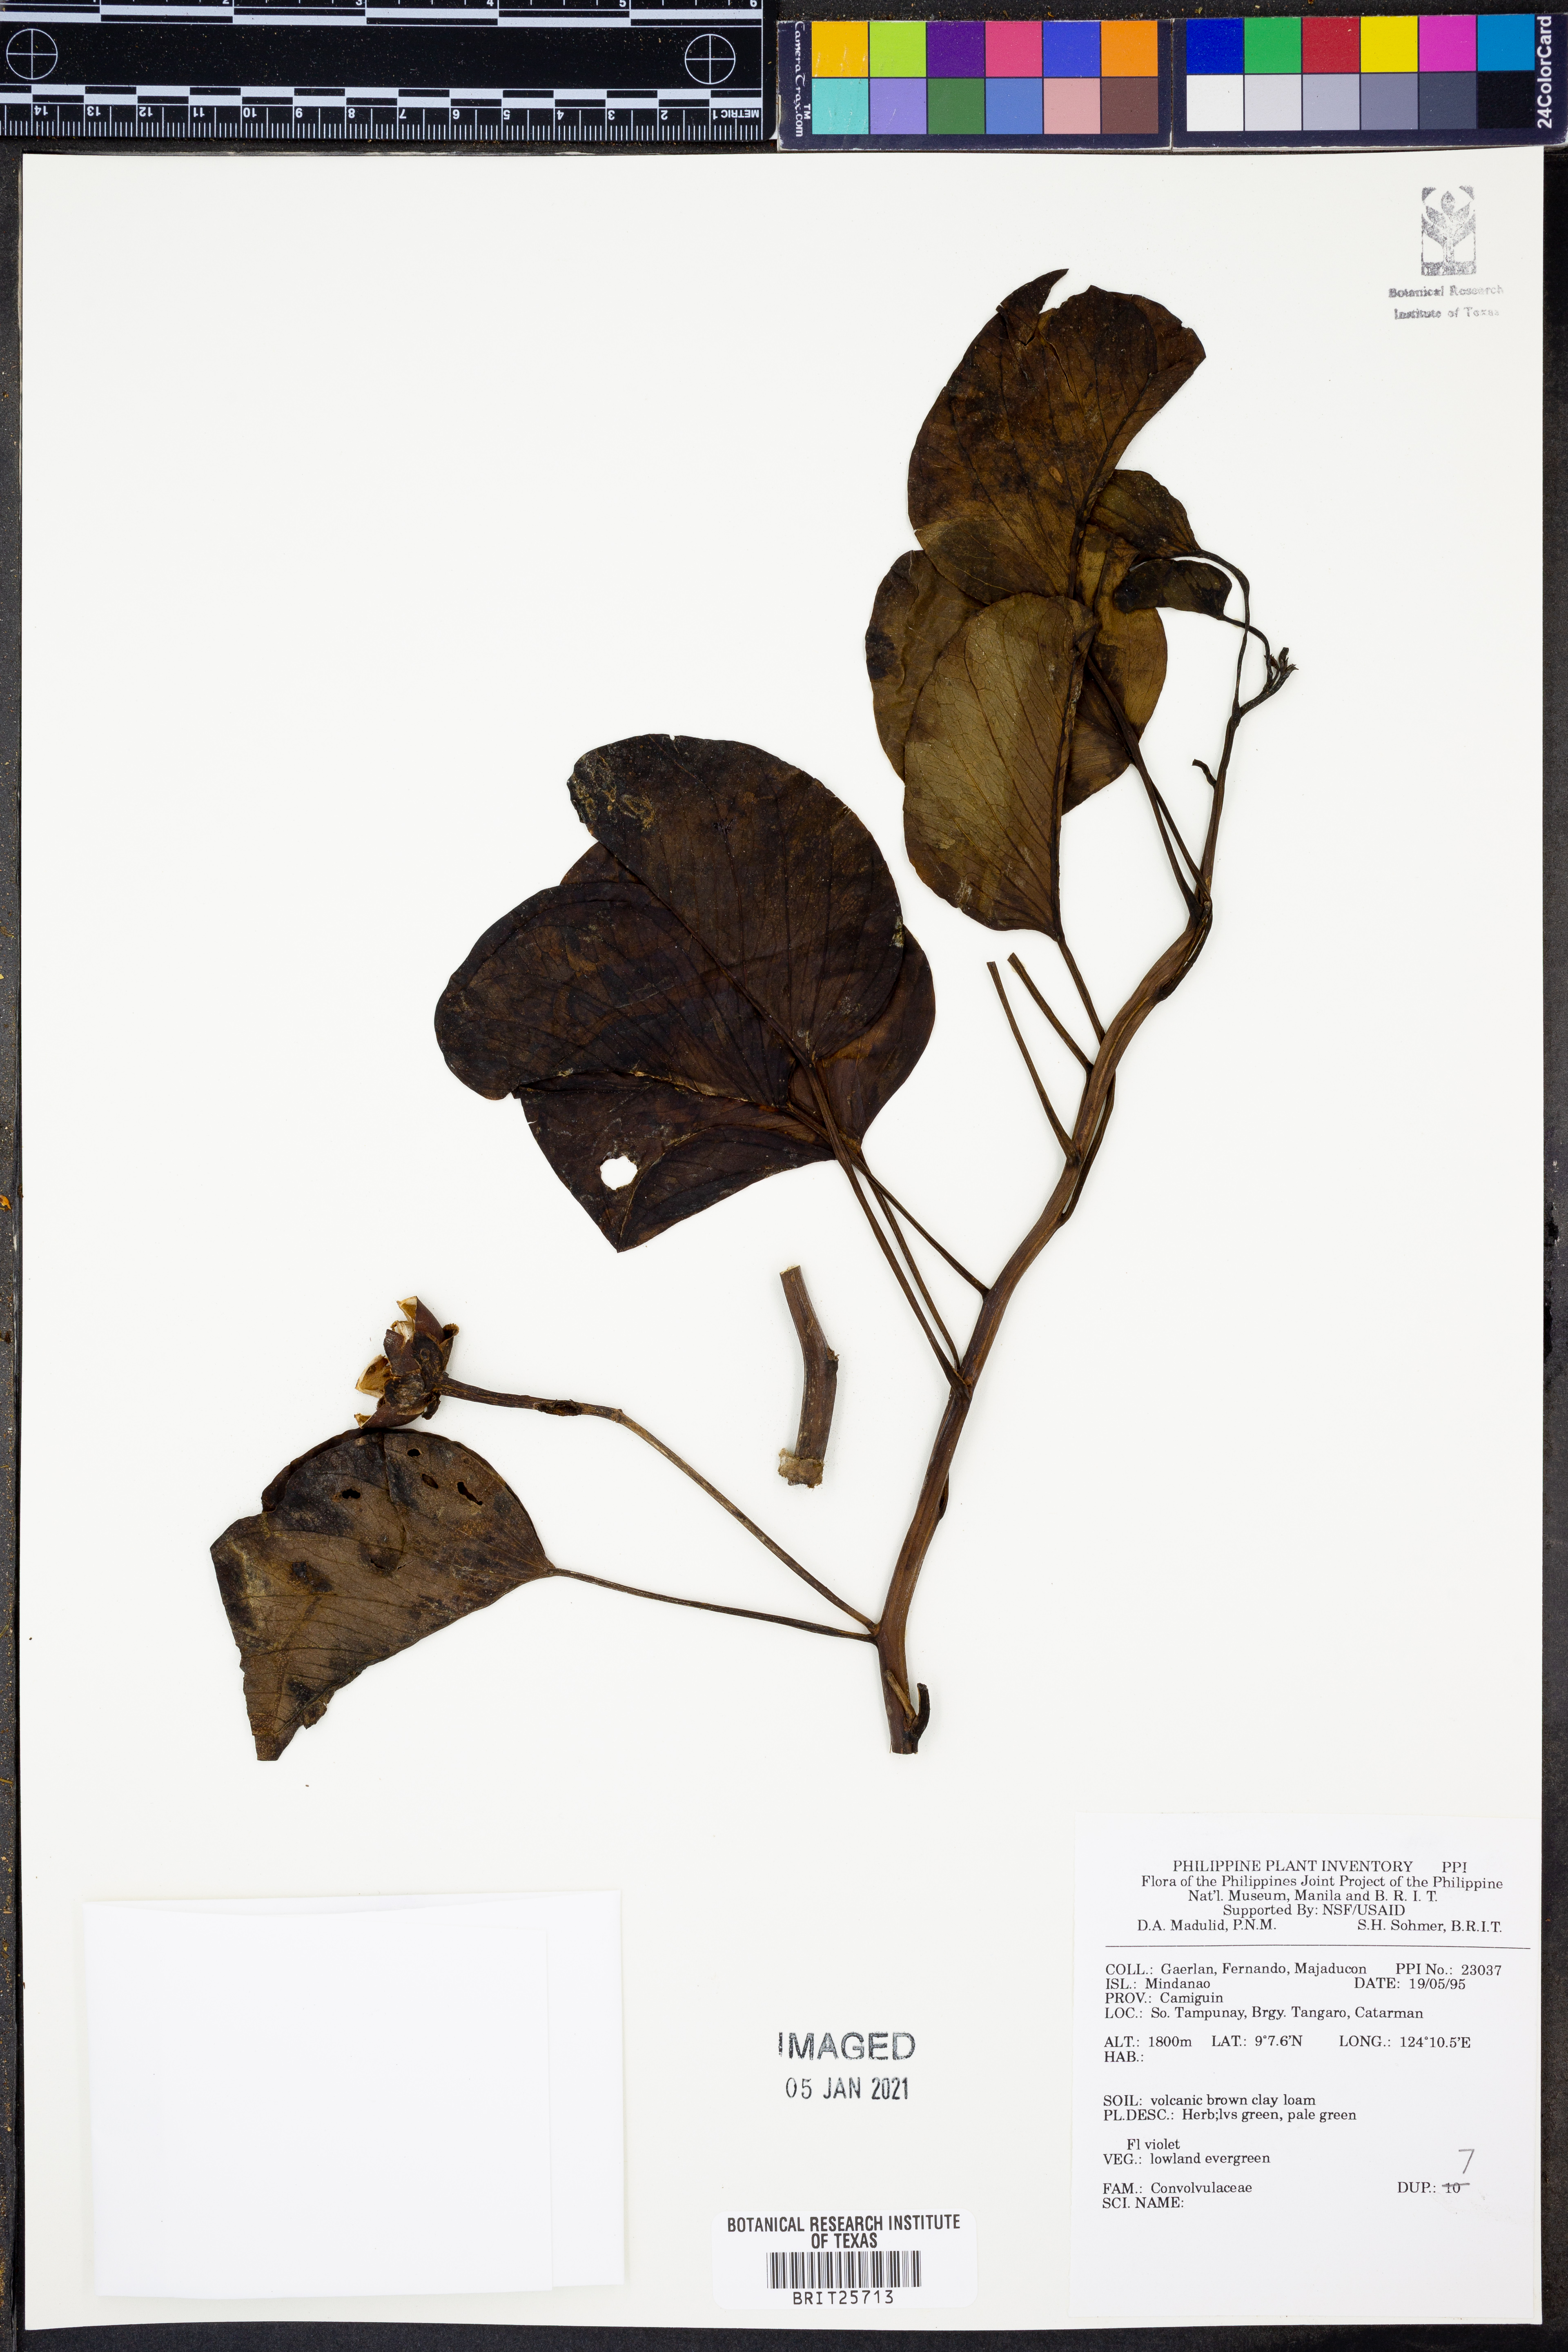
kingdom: Plantae
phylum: Tracheophyta
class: Magnoliopsida
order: Solanales
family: Convolvulaceae
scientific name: Convolvulaceae
